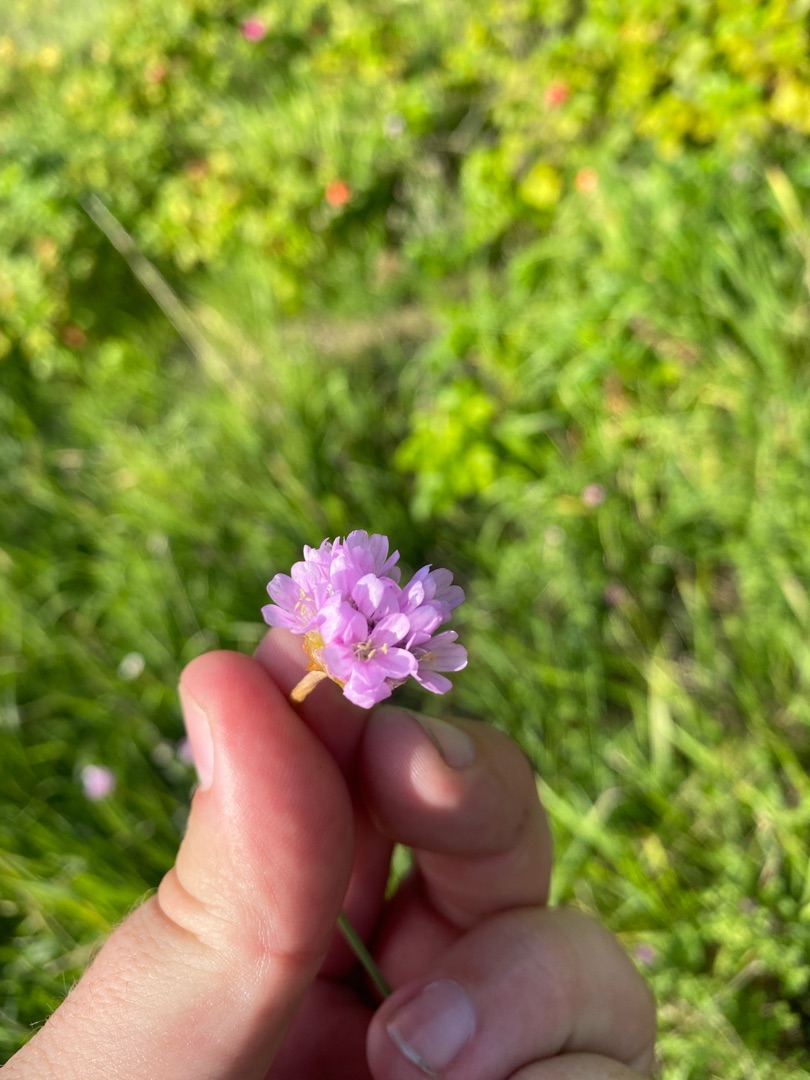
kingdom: Plantae
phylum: Tracheophyta
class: Magnoliopsida
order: Caryophyllales
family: Plumbaginaceae
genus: Armeria
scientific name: Armeria maritima
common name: Engelskgræs
